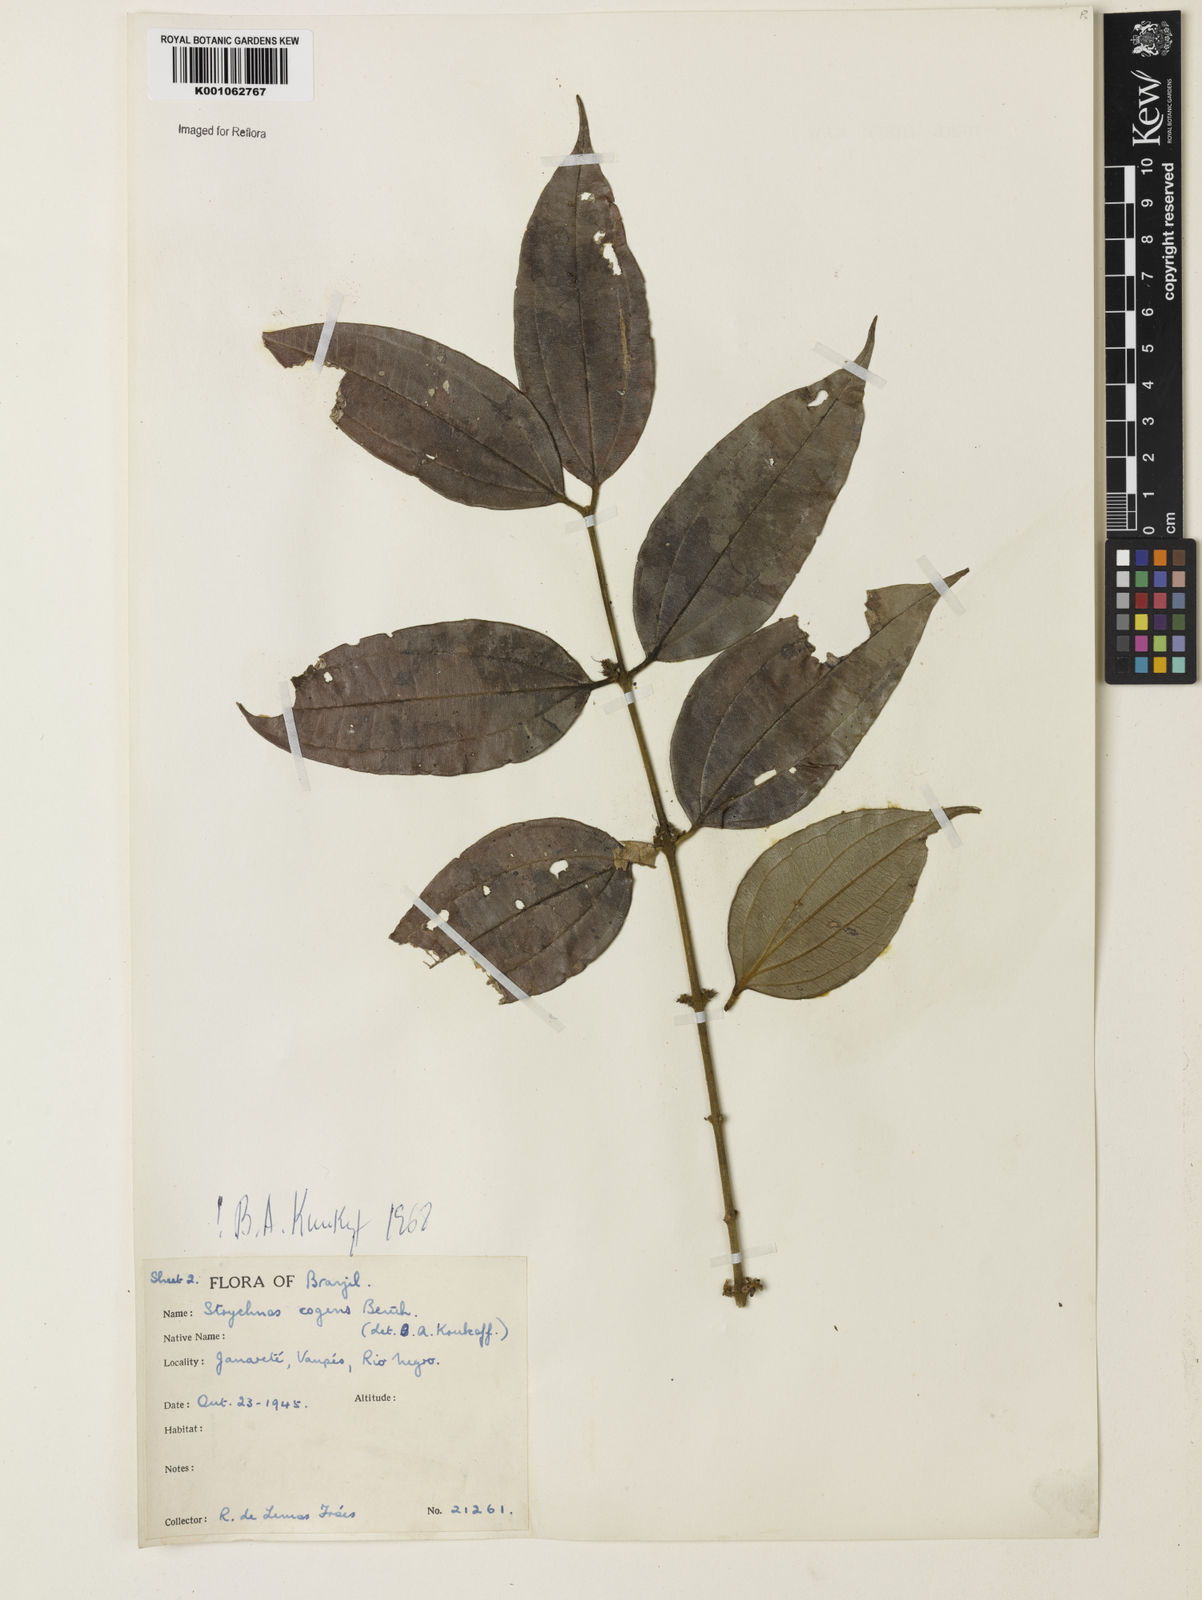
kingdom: Plantae
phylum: Tracheophyta
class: Magnoliopsida
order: Gentianales
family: Loganiaceae
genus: Strychnos
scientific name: Strychnos cogens
